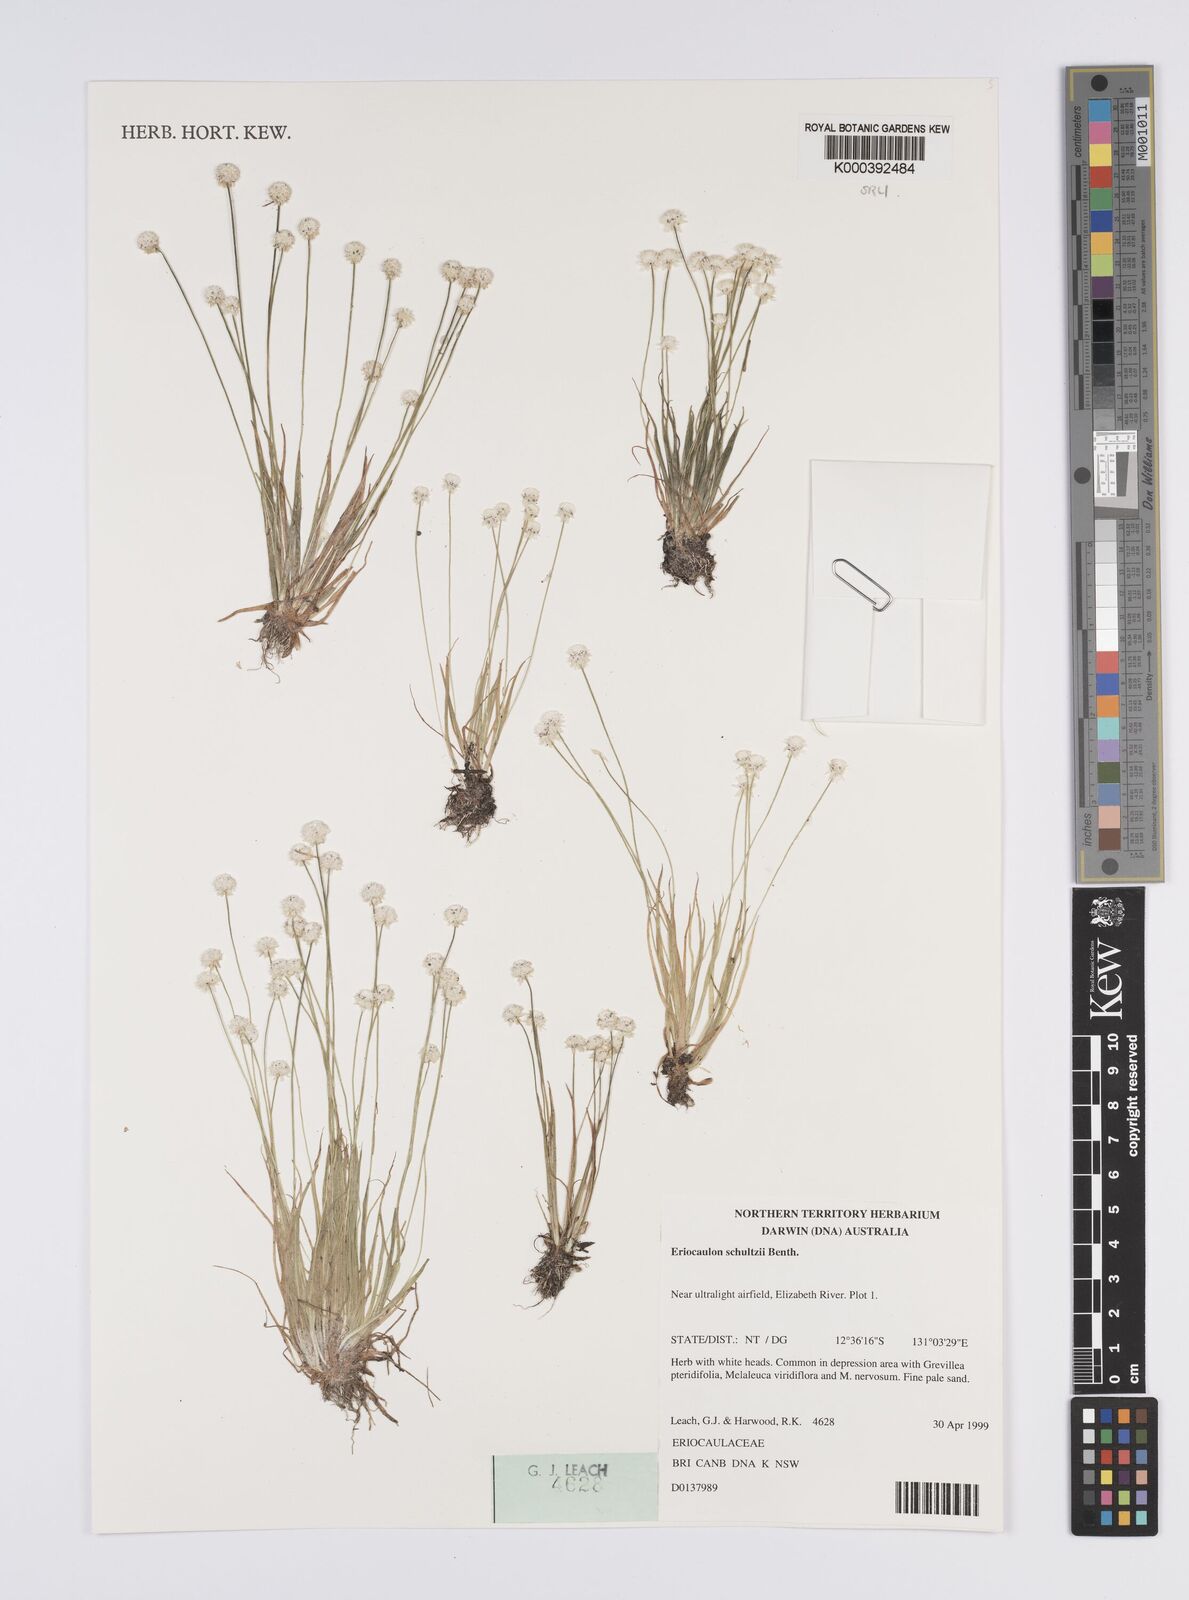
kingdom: Plantae
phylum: Tracheophyta
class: Liliopsida
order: Poales
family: Eriocaulaceae
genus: Eriocaulon
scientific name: Eriocaulon schultzii
